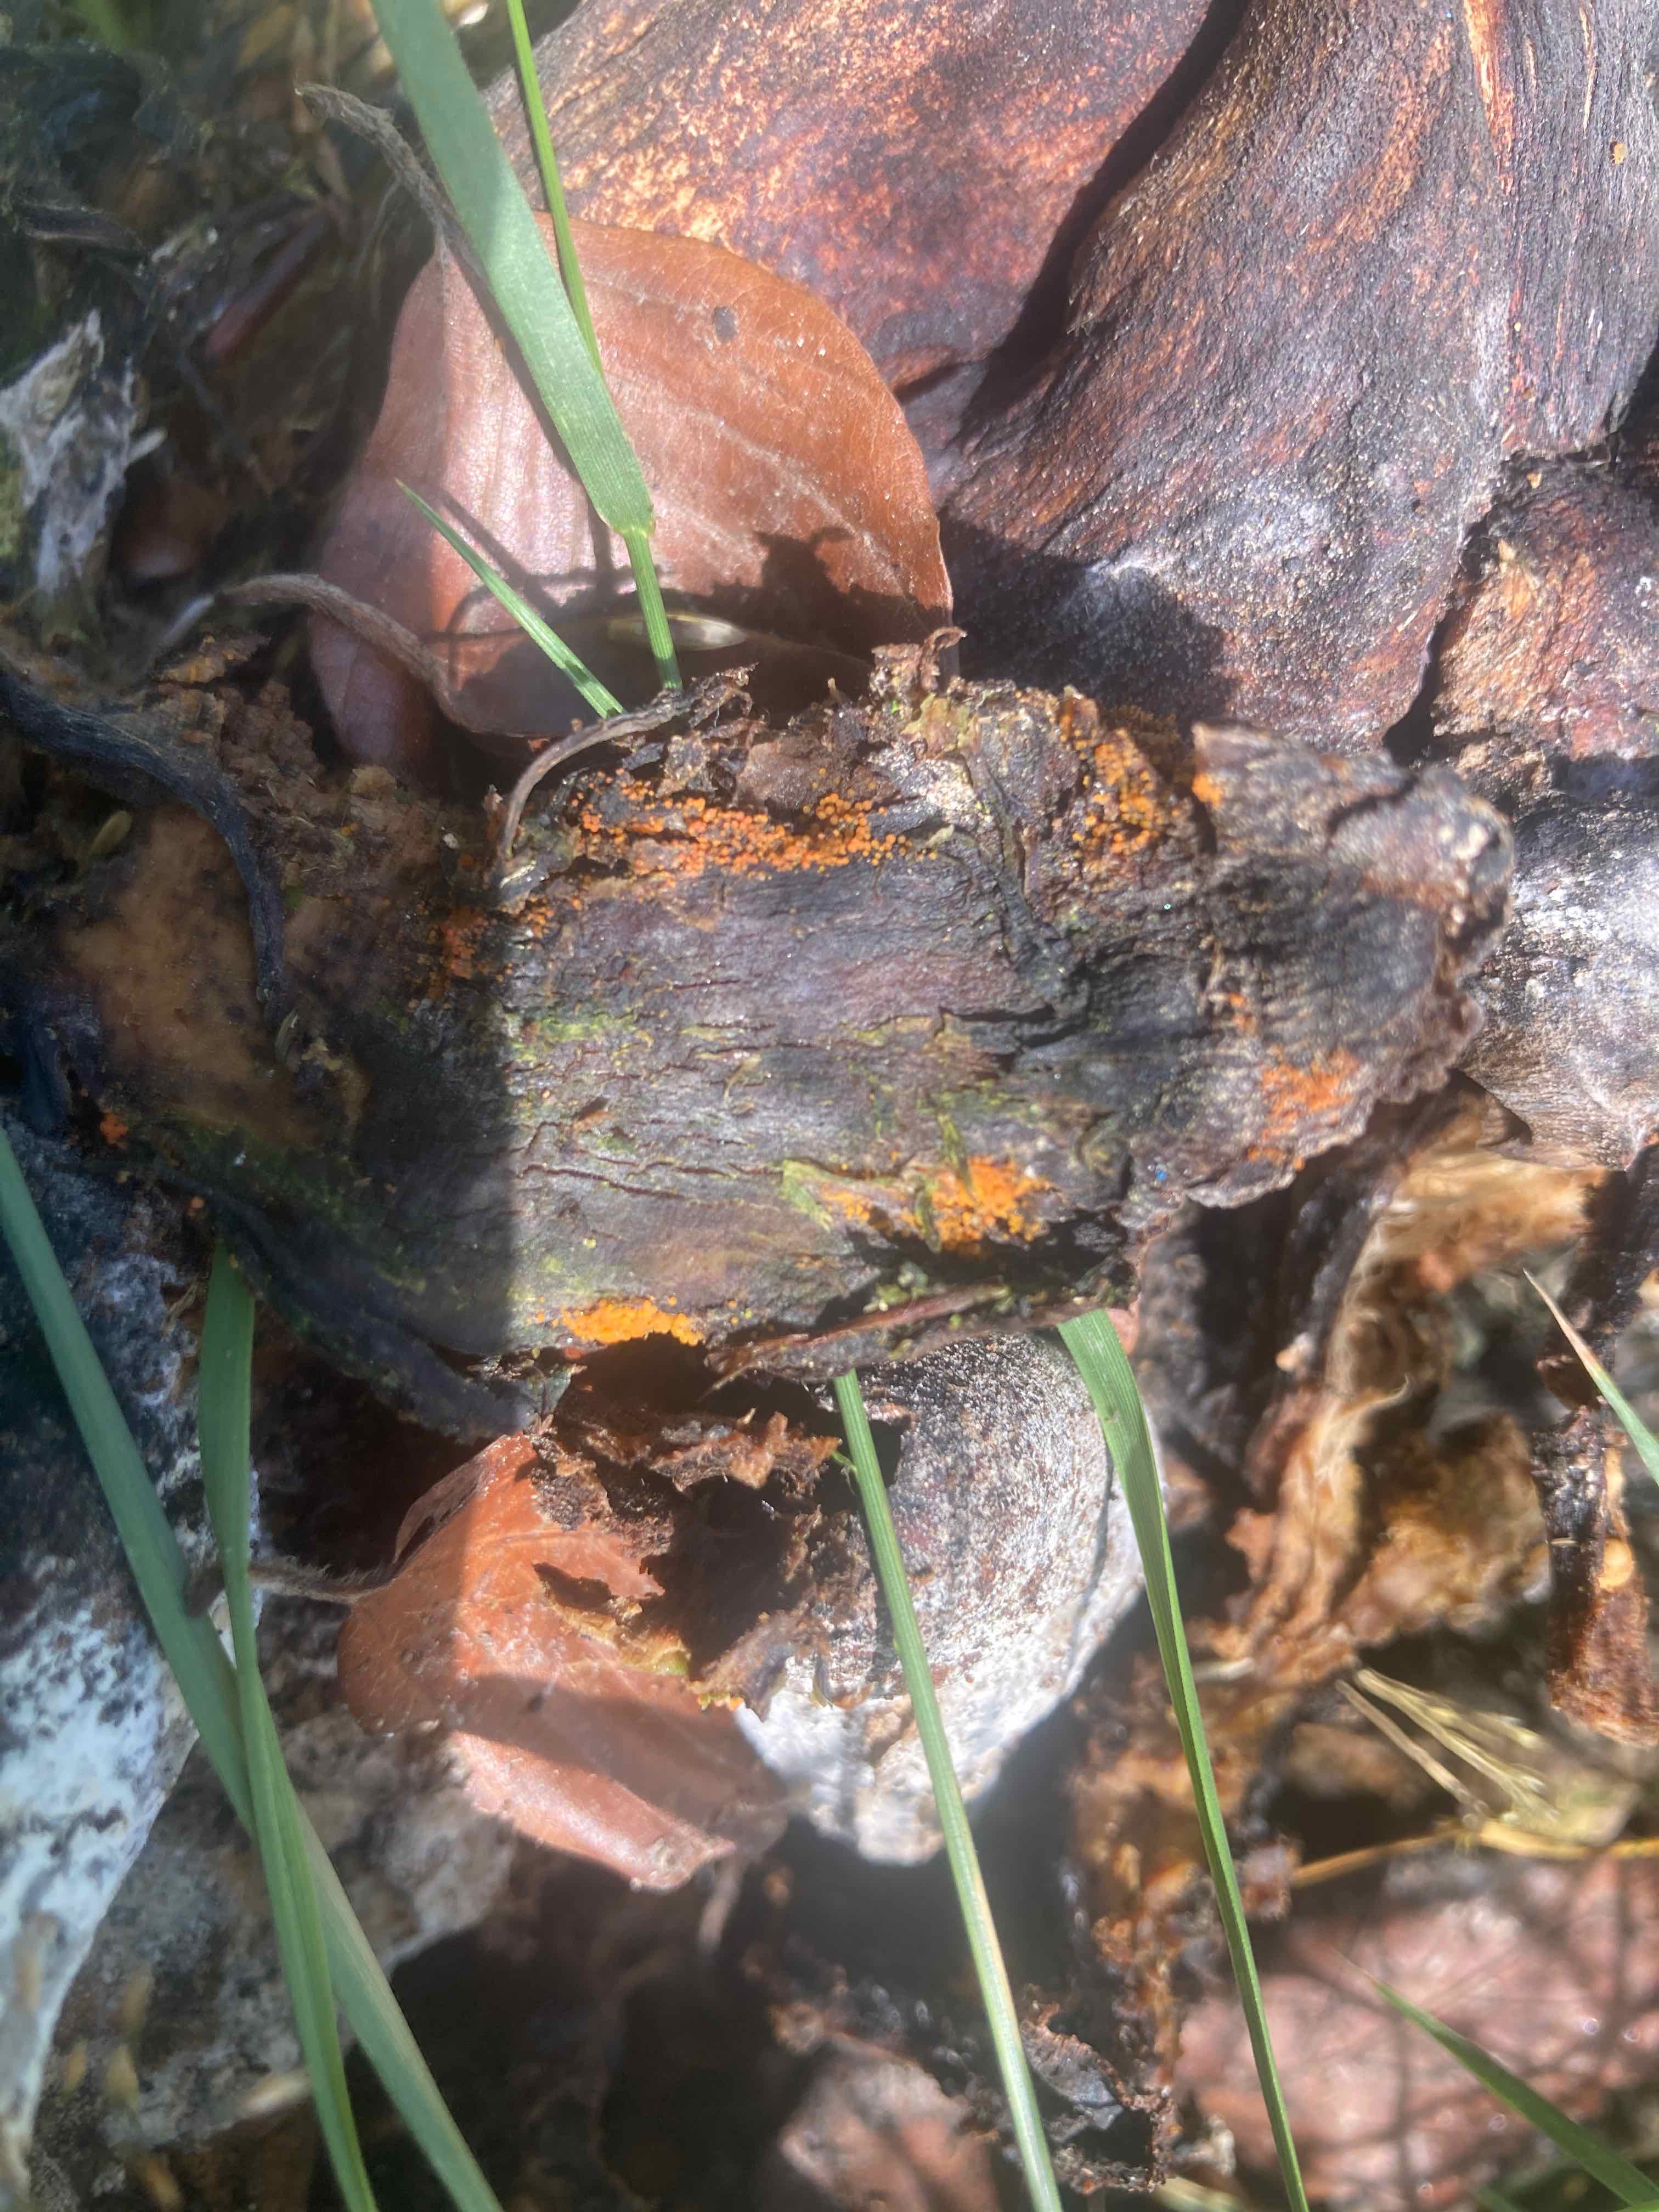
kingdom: Fungi
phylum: Ascomycota
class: Sordariomycetes
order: Hypocreales
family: Nectriaceae
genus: Hydropisphaera
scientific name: Hydropisphaera peziza
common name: skålformet gyldenkerne
